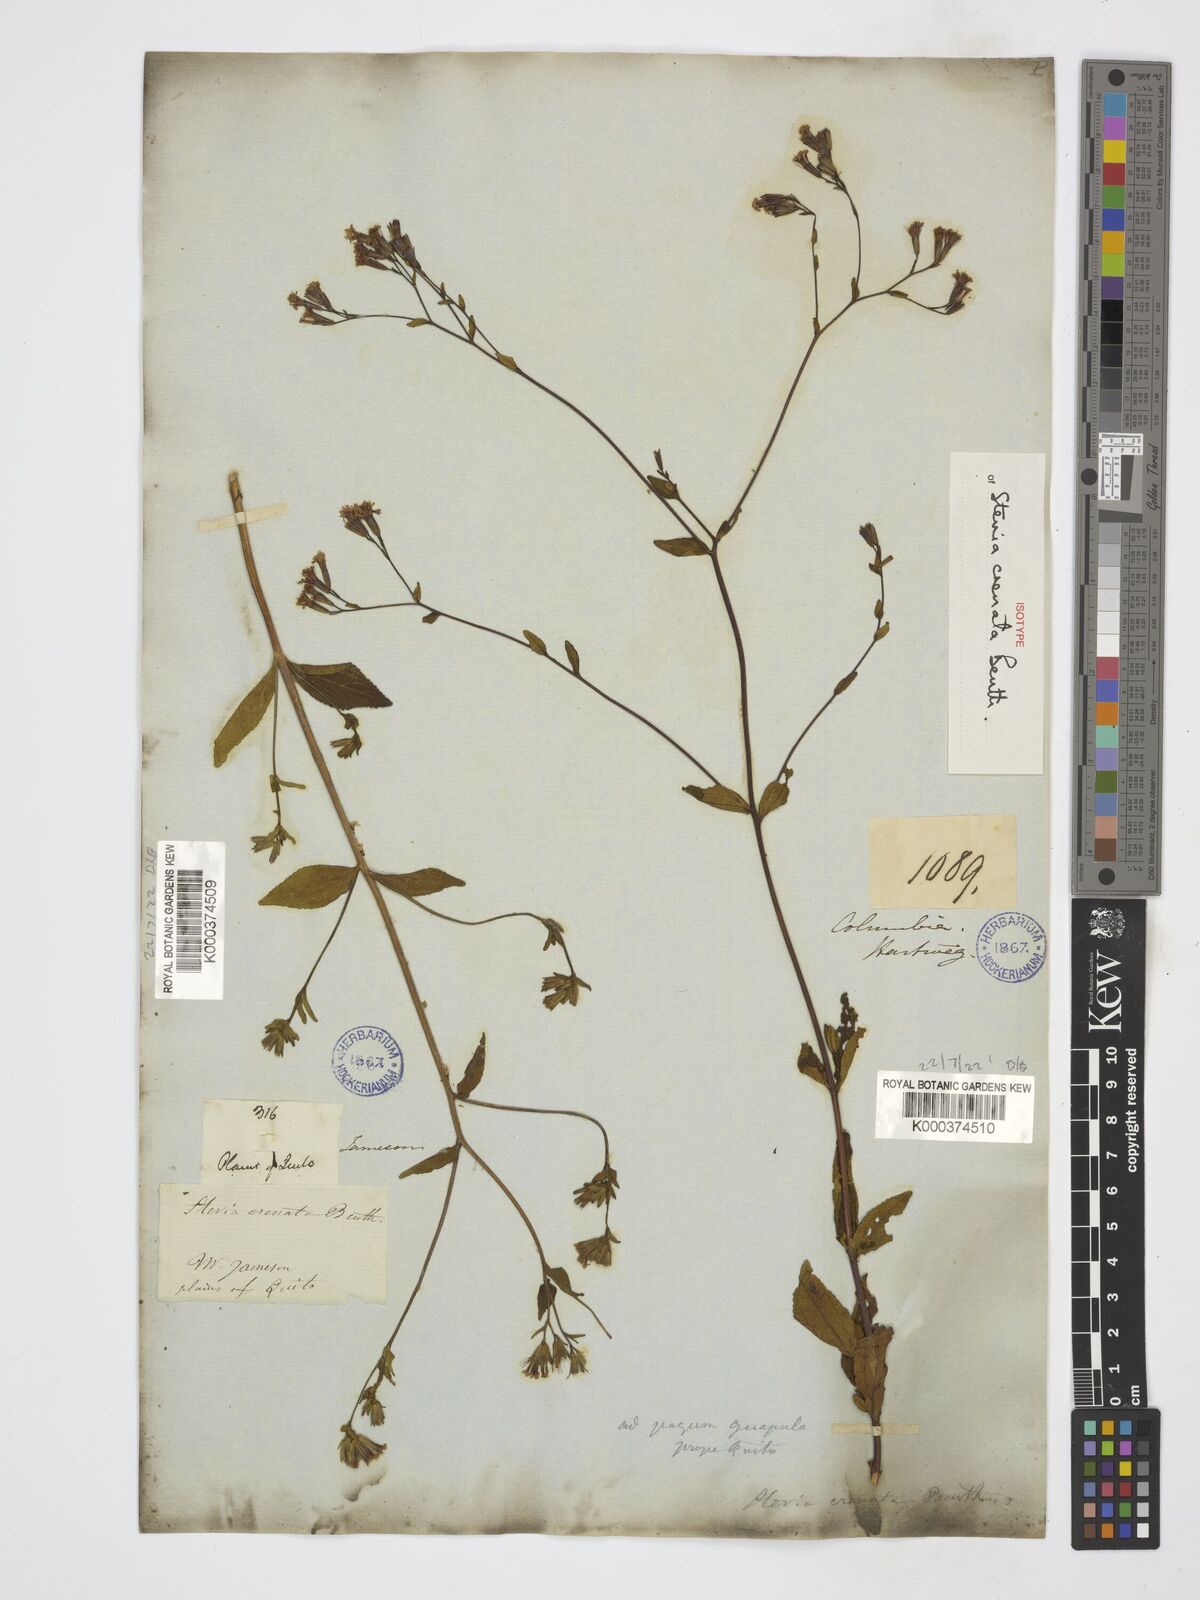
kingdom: Plantae
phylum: Tracheophyta
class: Magnoliopsida
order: Asterales
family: Asteraceae
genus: Stevia
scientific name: Stevia crenata
